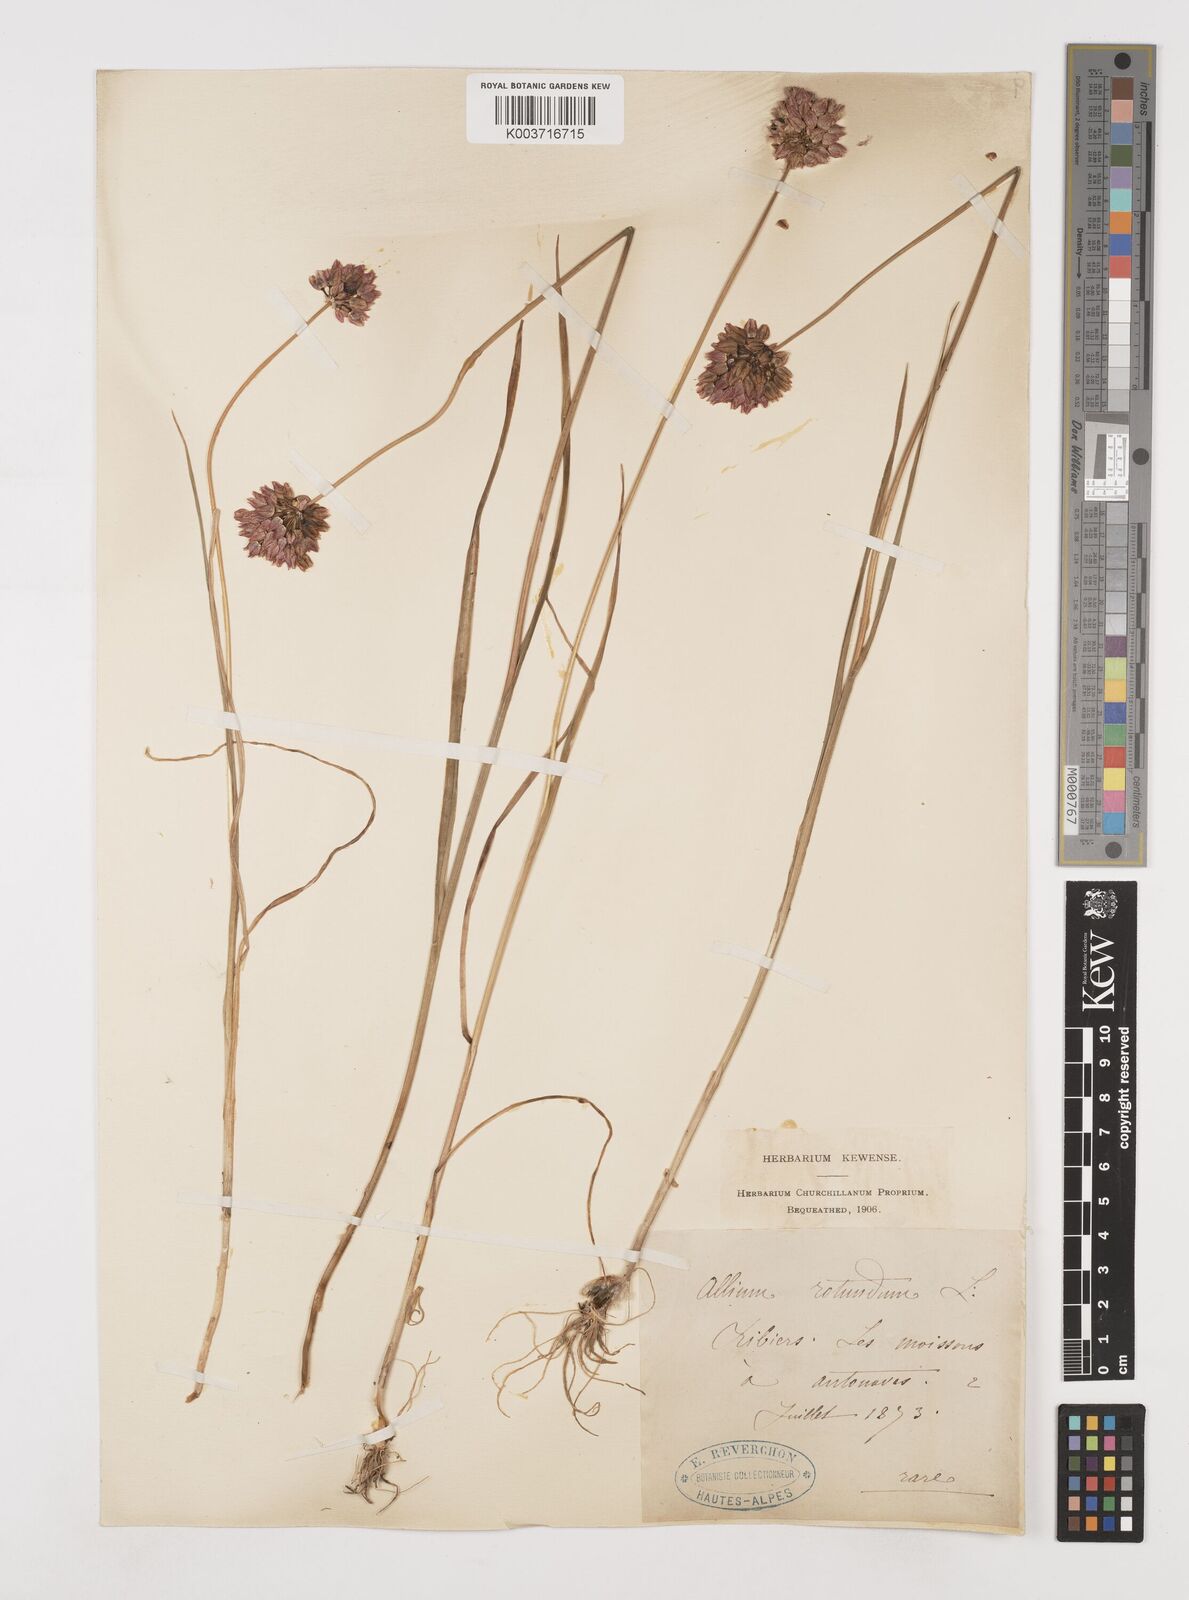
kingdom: Plantae
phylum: Tracheophyta
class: Liliopsida
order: Asparagales
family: Amaryllidaceae
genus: Allium
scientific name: Allium rotundum
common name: Sand leek
